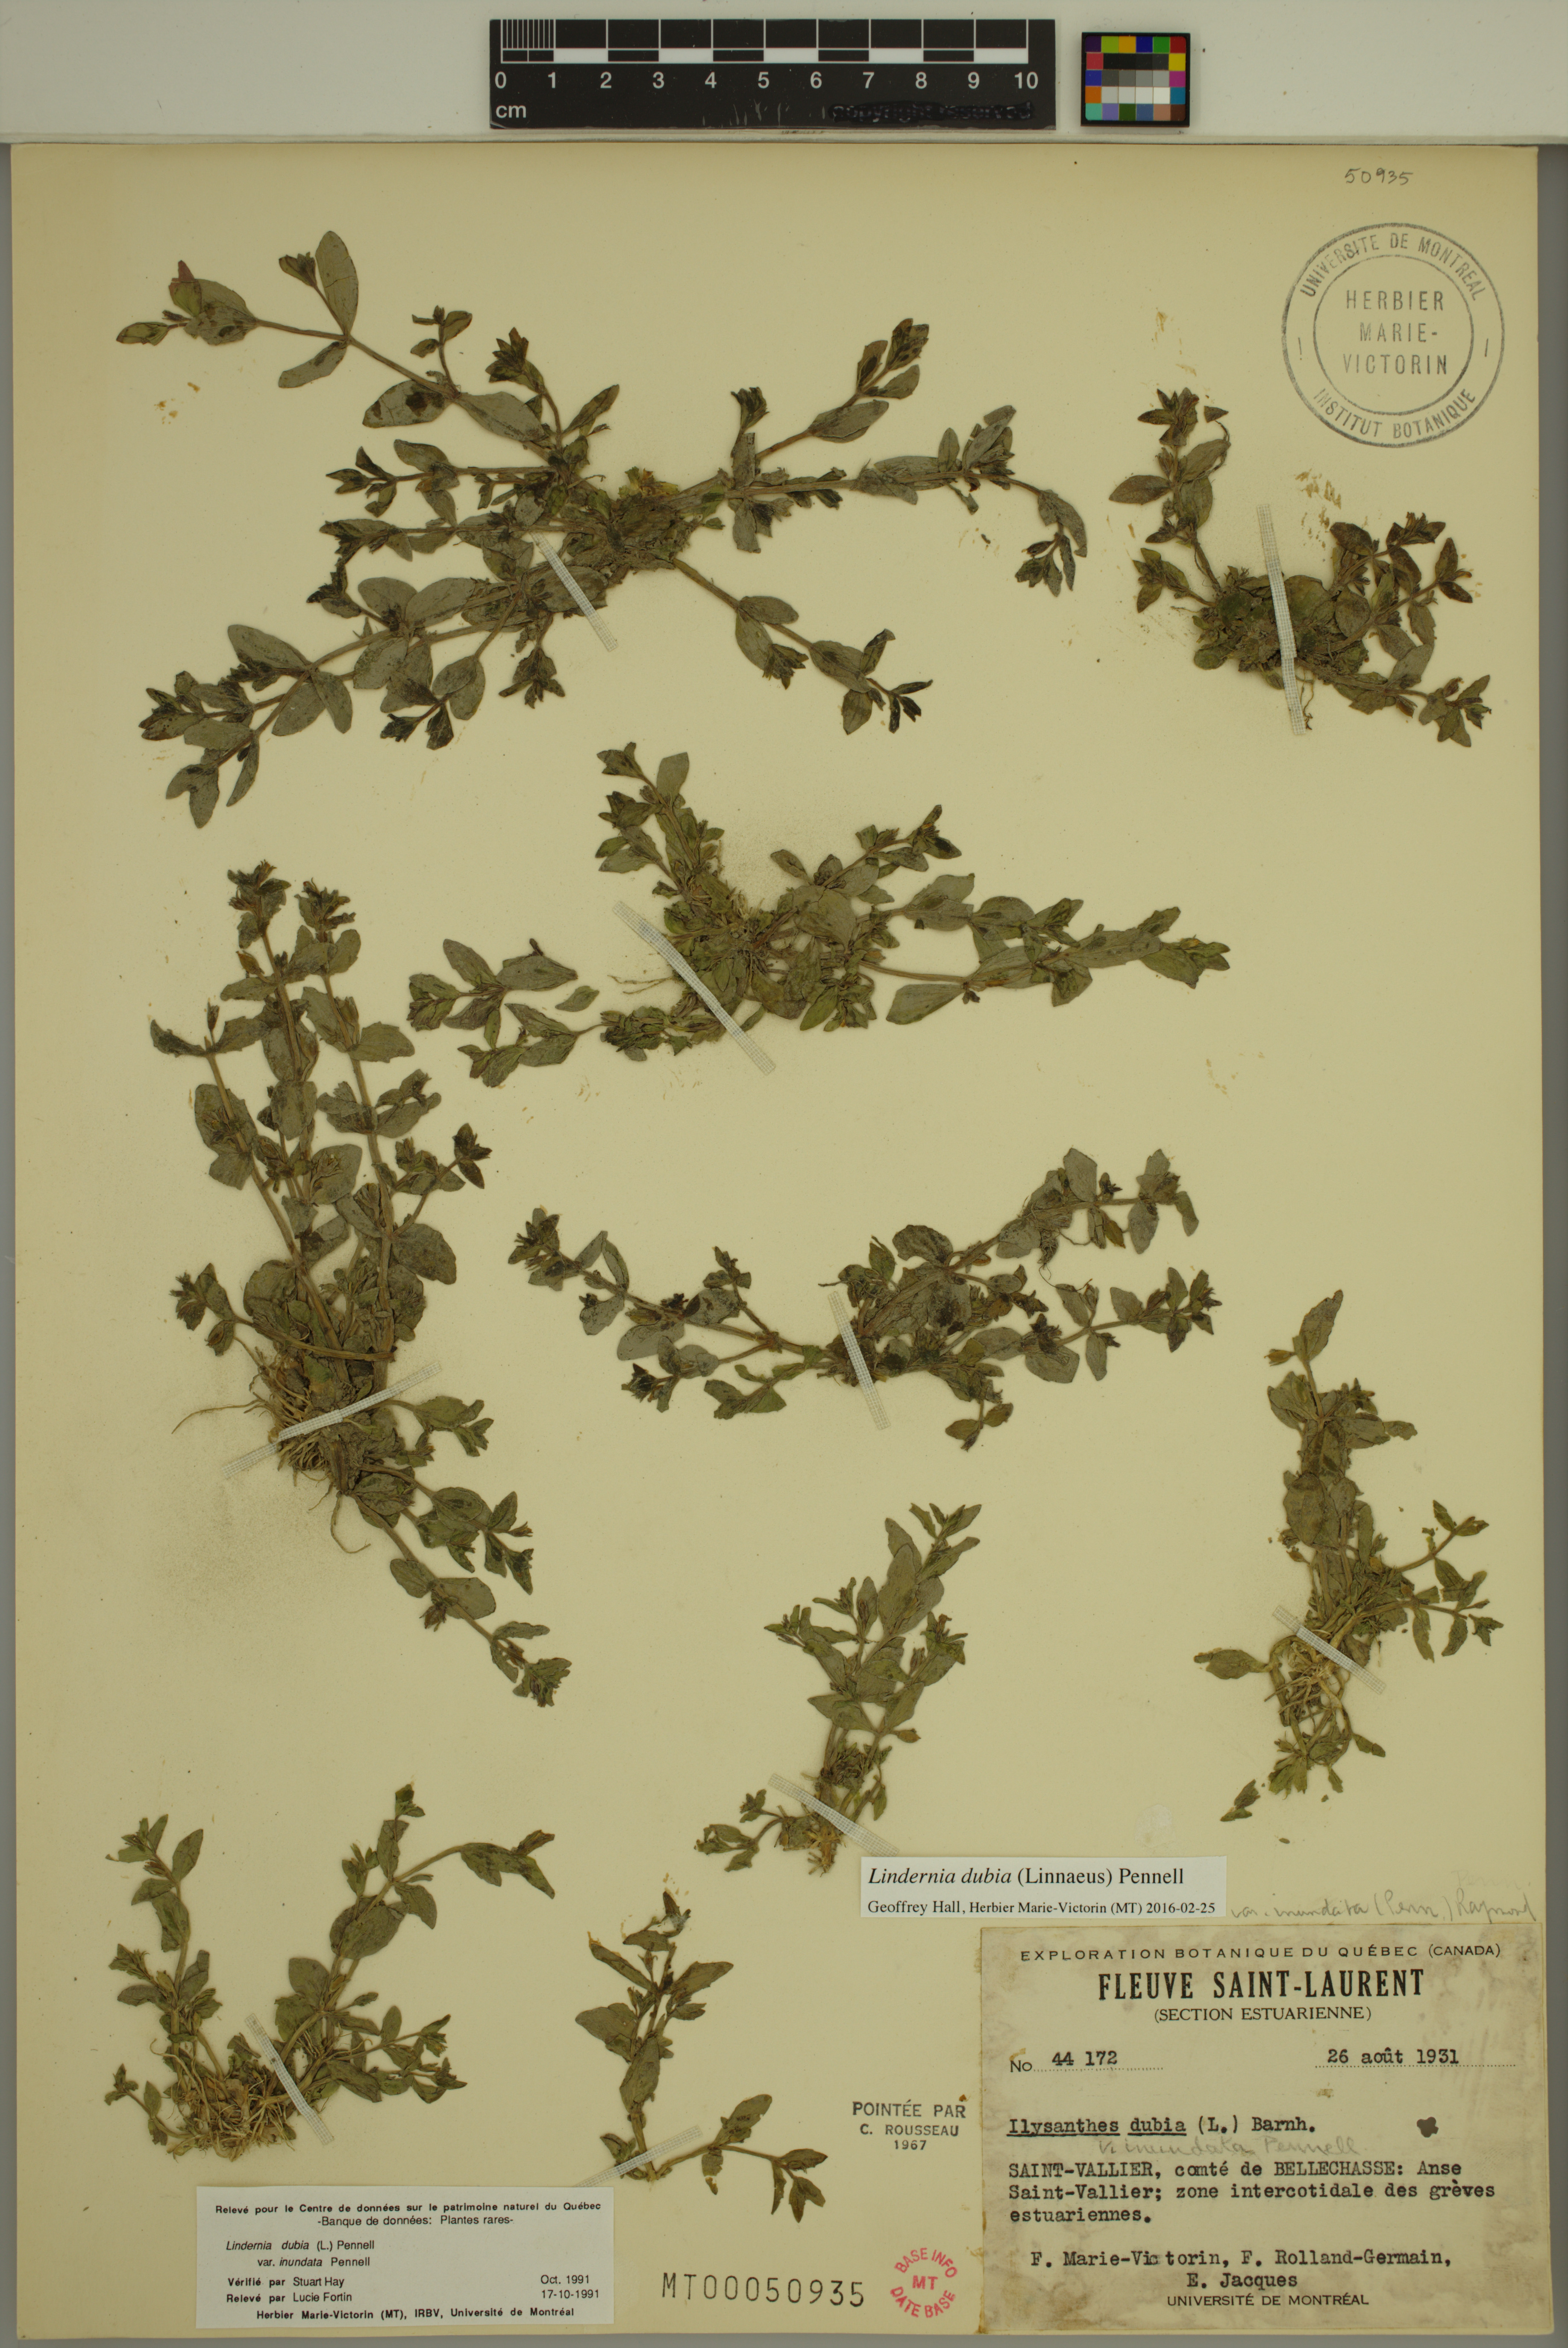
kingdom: Plantae
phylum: Tracheophyta
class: Magnoliopsida
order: Lamiales
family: Linderniaceae
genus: Lindernia
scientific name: Lindernia dubia
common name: Annual false pimpernel
